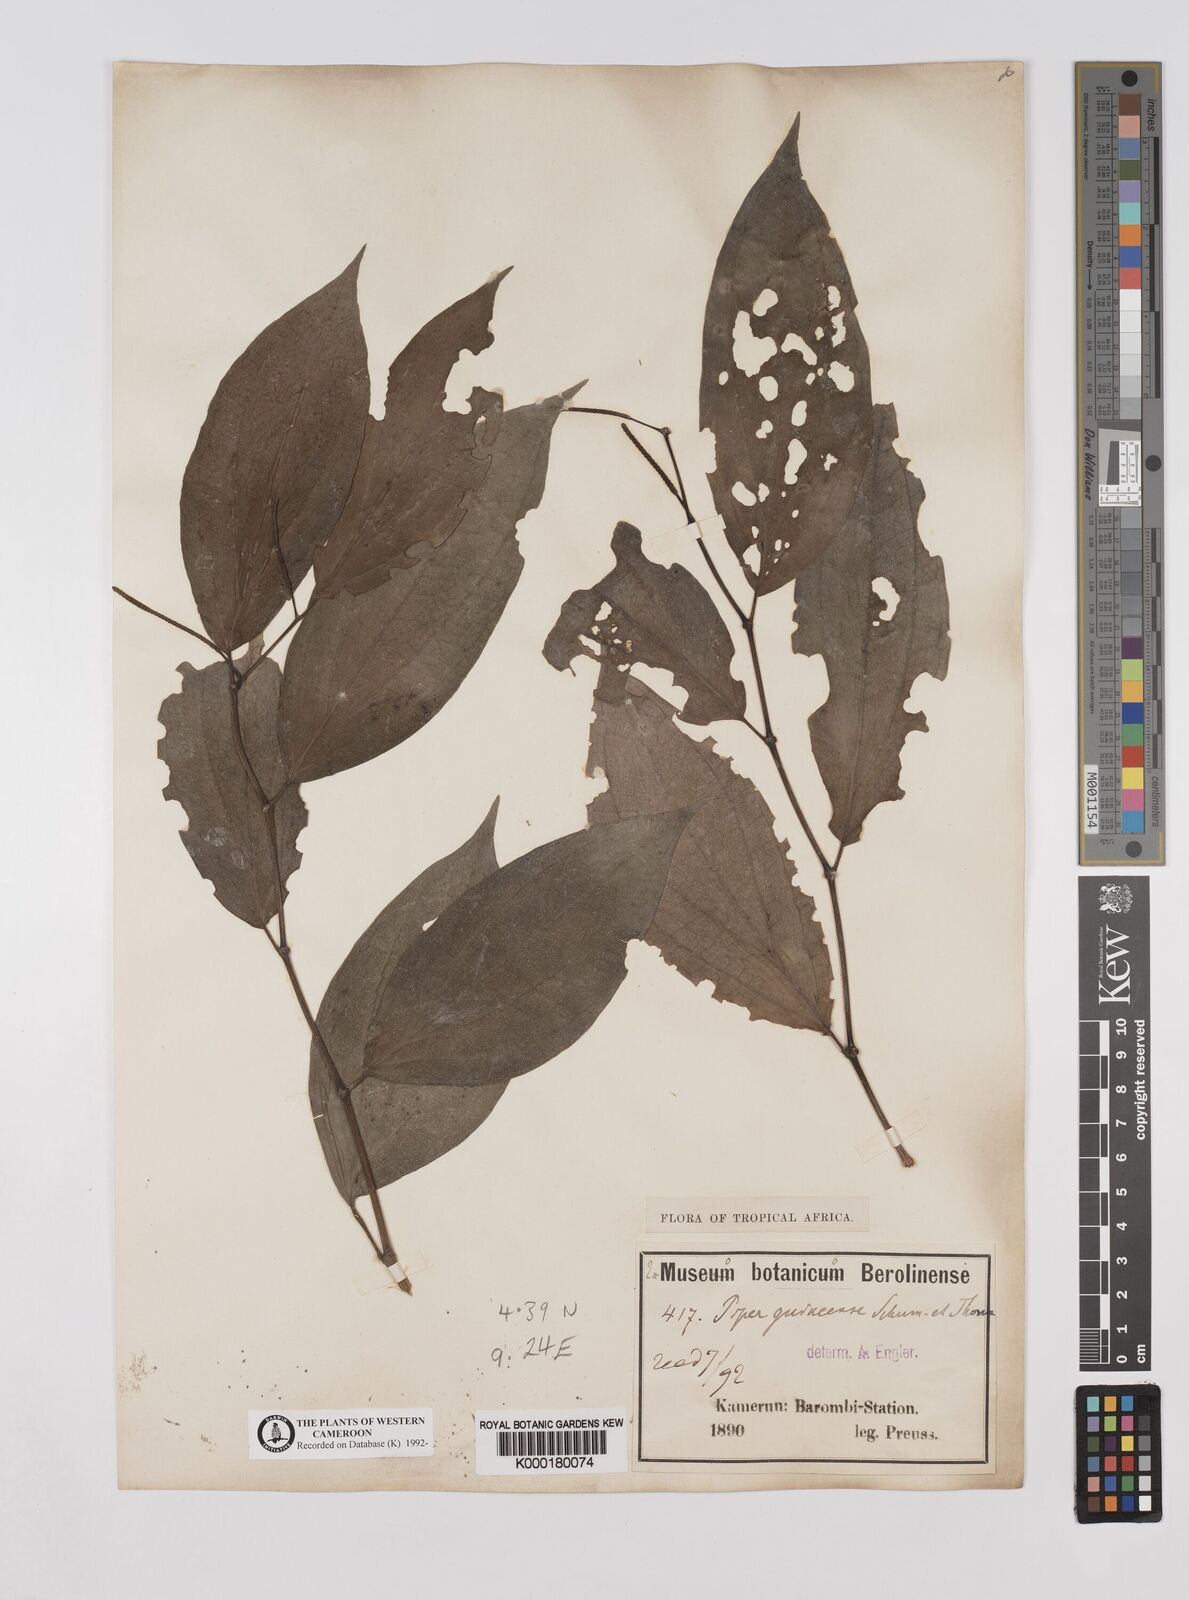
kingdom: Plantae
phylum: Tracheophyta
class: Magnoliopsida
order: Piperales
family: Piperaceae
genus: Piper
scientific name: Piper guineense
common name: Benin pepper
